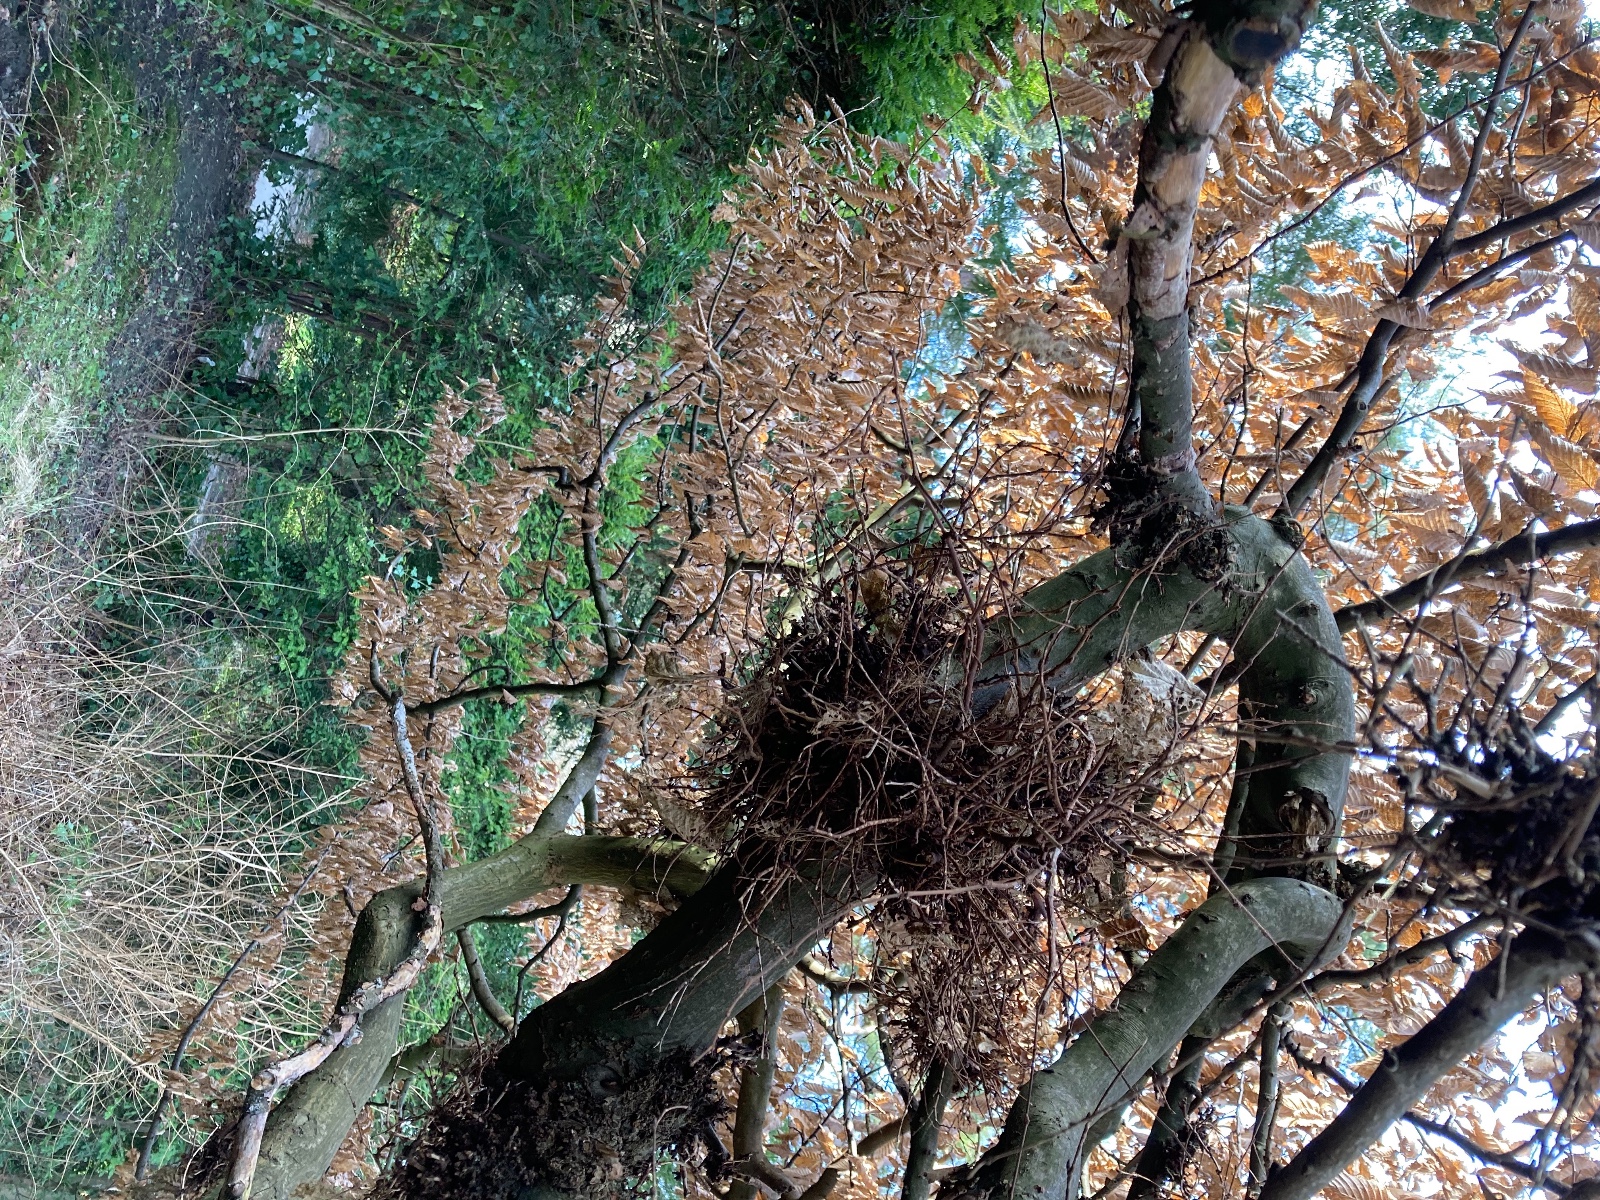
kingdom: Fungi
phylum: Ascomycota
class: Taphrinomycetes
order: Taphrinales
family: Taphrinaceae
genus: Taphrina
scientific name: Taphrina carpini
